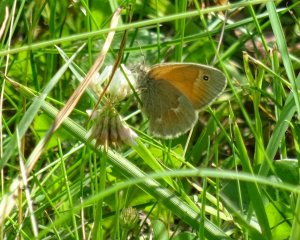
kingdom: Animalia
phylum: Arthropoda
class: Insecta
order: Lepidoptera
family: Nymphalidae
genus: Coenonympha
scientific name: Coenonympha tullia
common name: Large Heath
